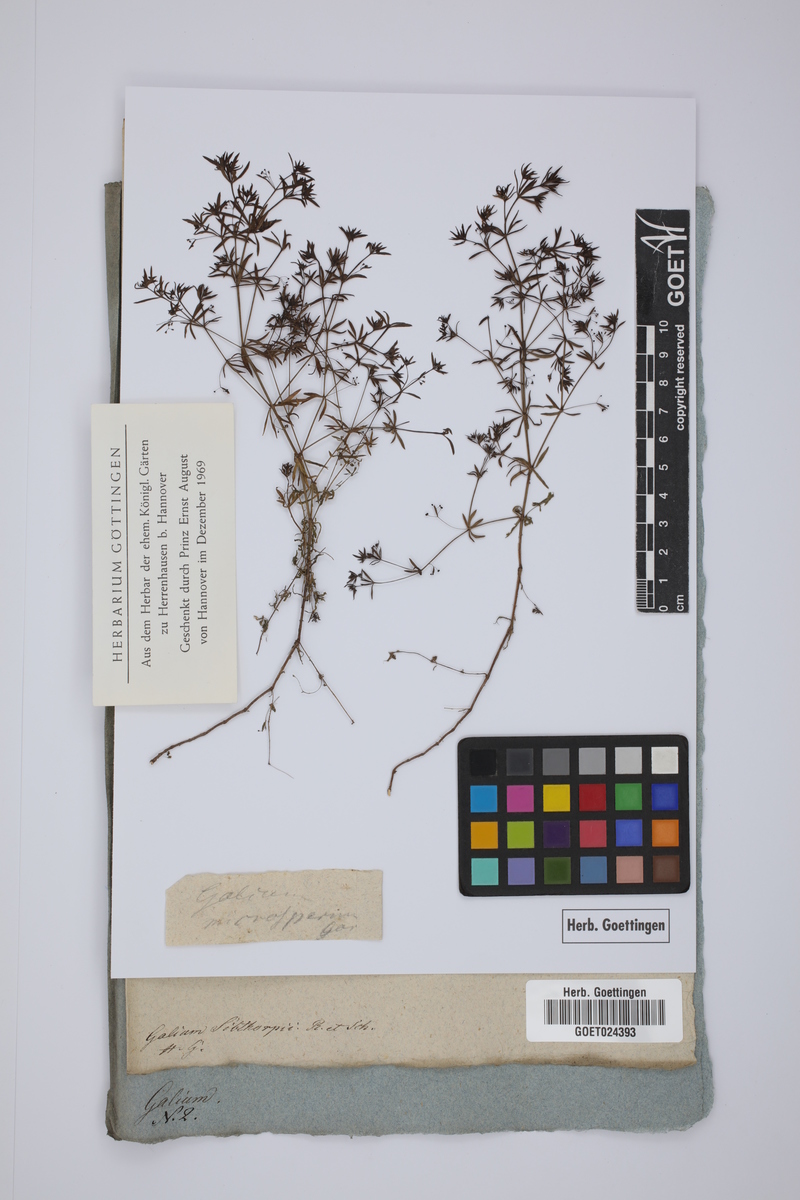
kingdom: Plantae
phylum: Tracheophyta
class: Magnoliopsida
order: Gentianales
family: Rubiaceae
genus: Galium
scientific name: Galium setaceum
